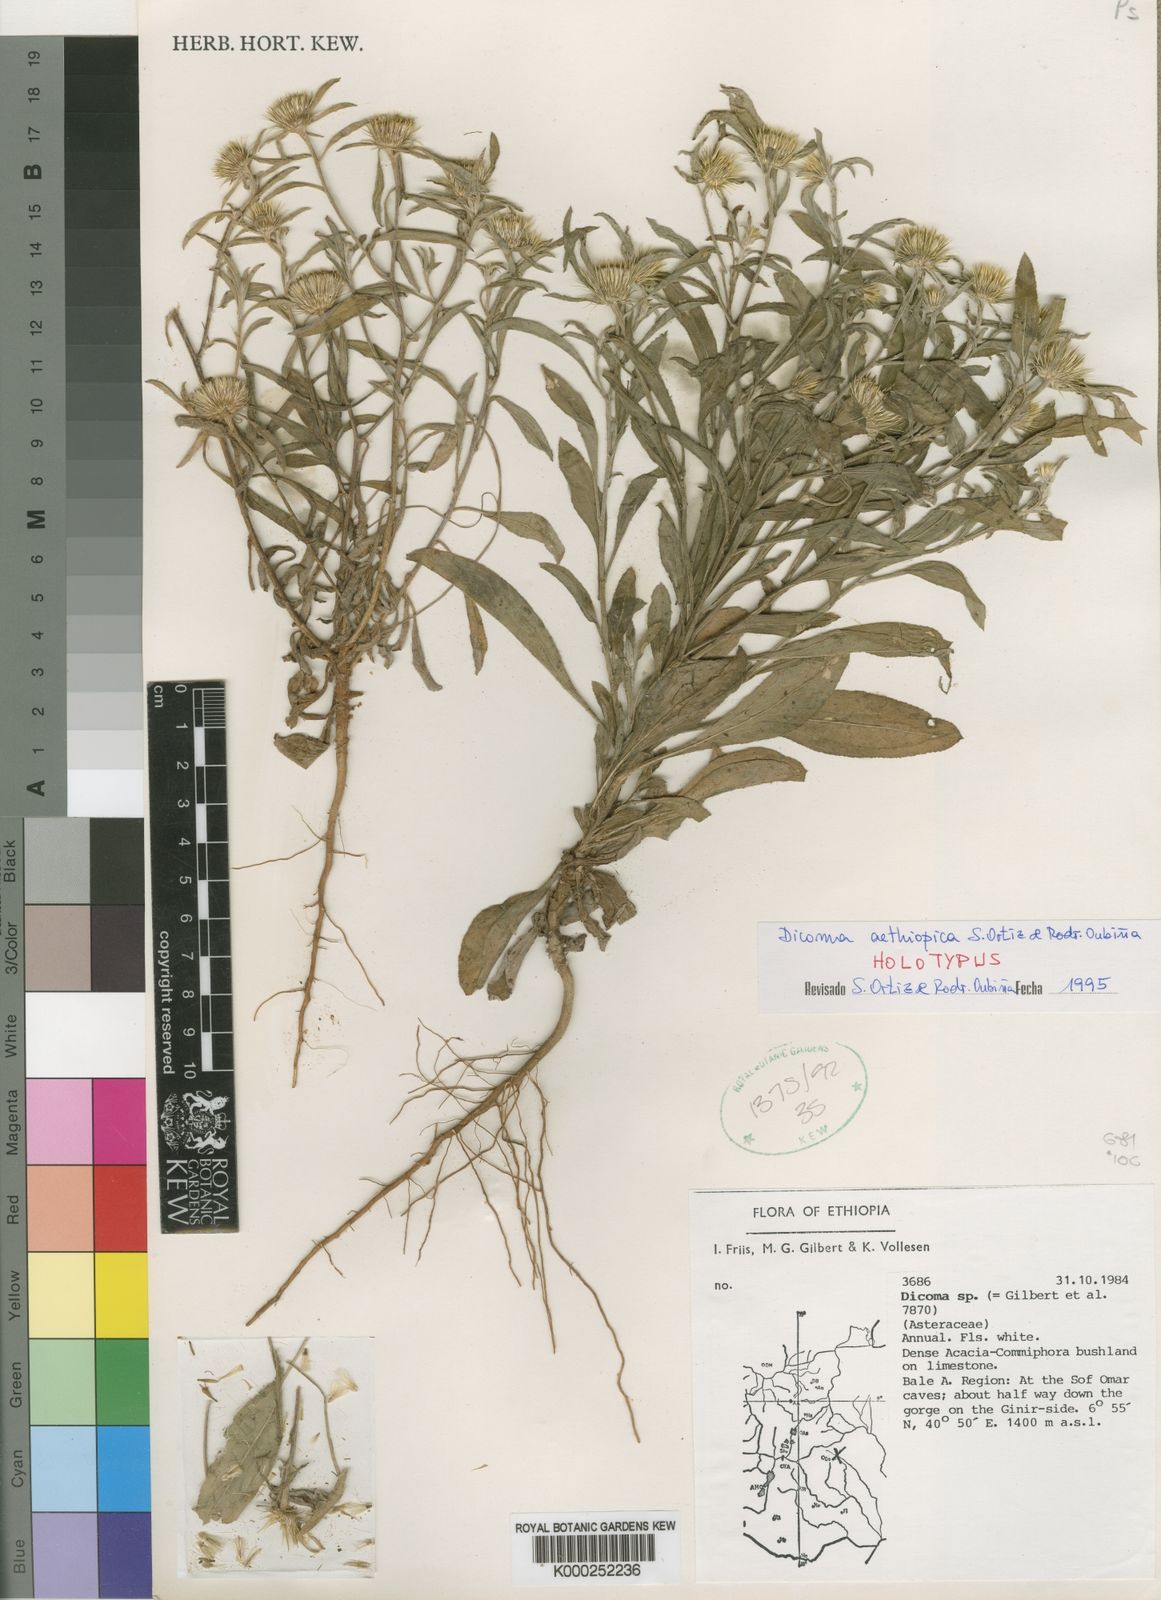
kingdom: Plantae
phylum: Tracheophyta
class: Magnoliopsida
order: Asterales
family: Asteraceae
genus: Dicoma
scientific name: Dicoma
